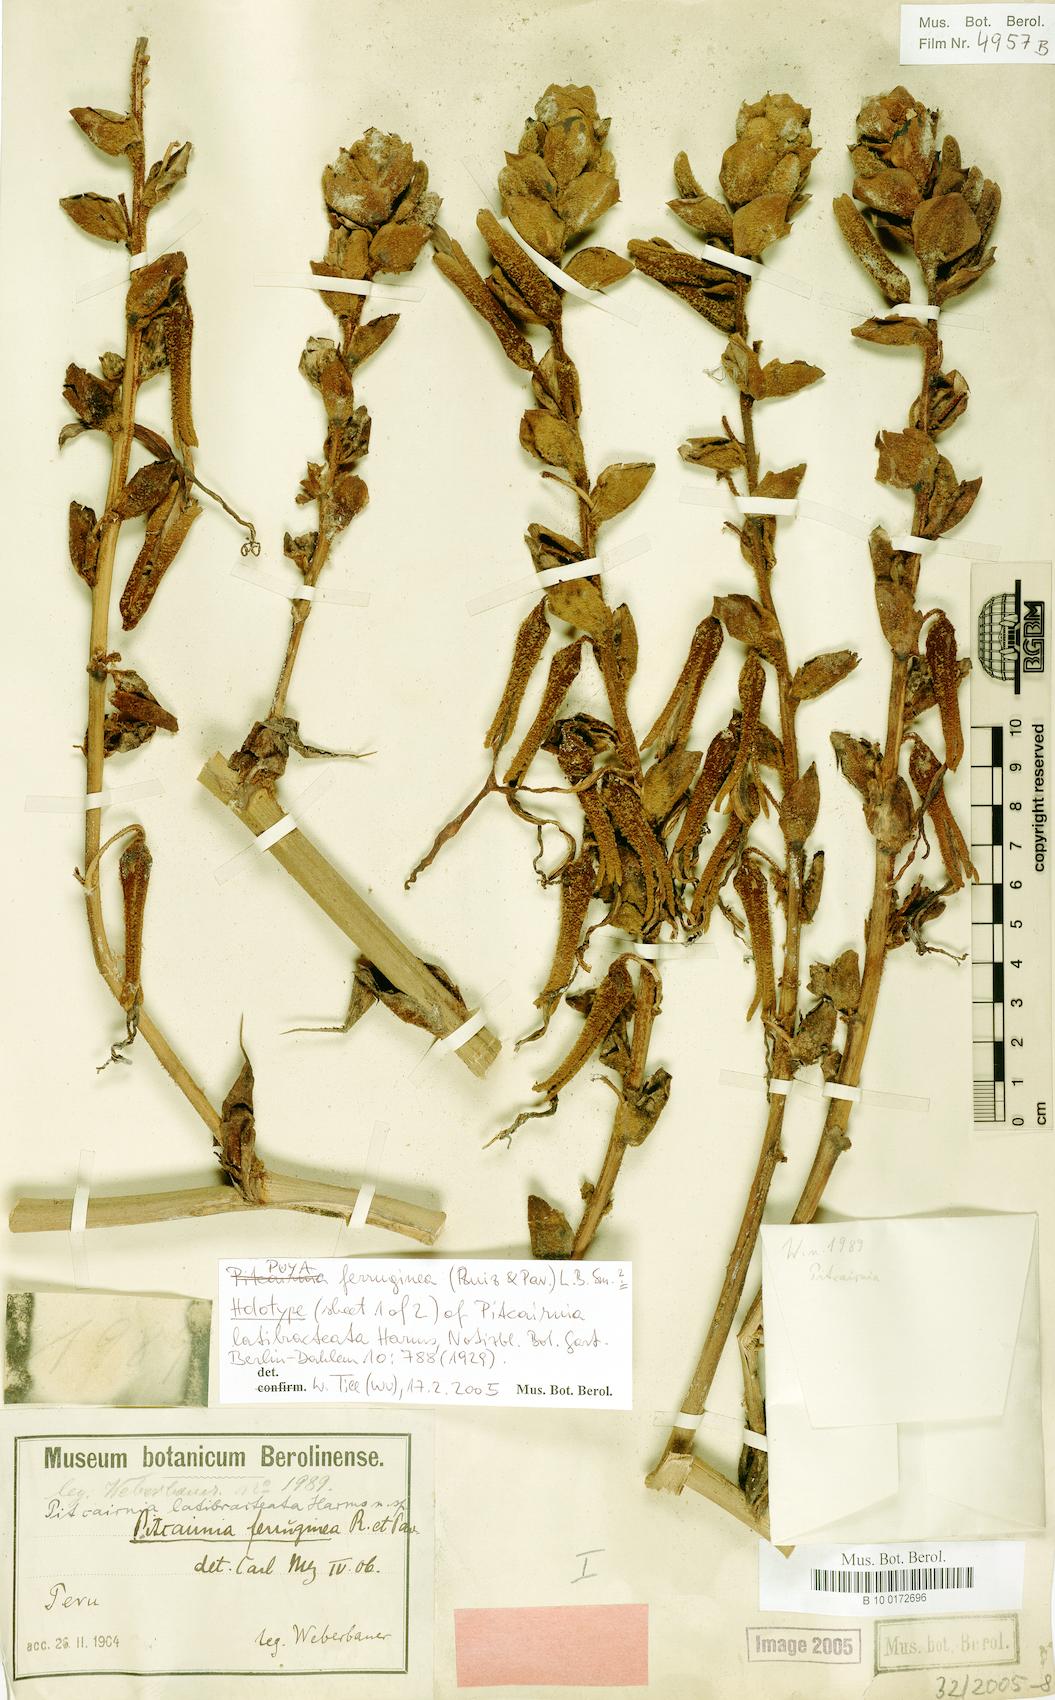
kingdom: Plantae
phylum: Tracheophyta
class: Liliopsida
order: Poales
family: Bromeliaceae
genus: Puya
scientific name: Puya ferruginea
